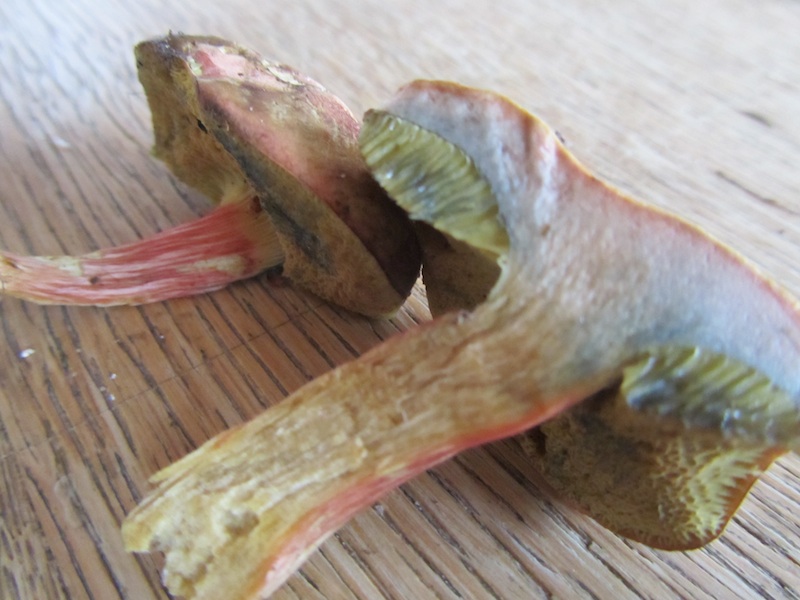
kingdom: Fungi
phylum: Basidiomycota
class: Agaricomycetes
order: Boletales
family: Boletaceae
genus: Hortiboletus
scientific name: Hortiboletus bubalinus
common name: aurora-rørhat
